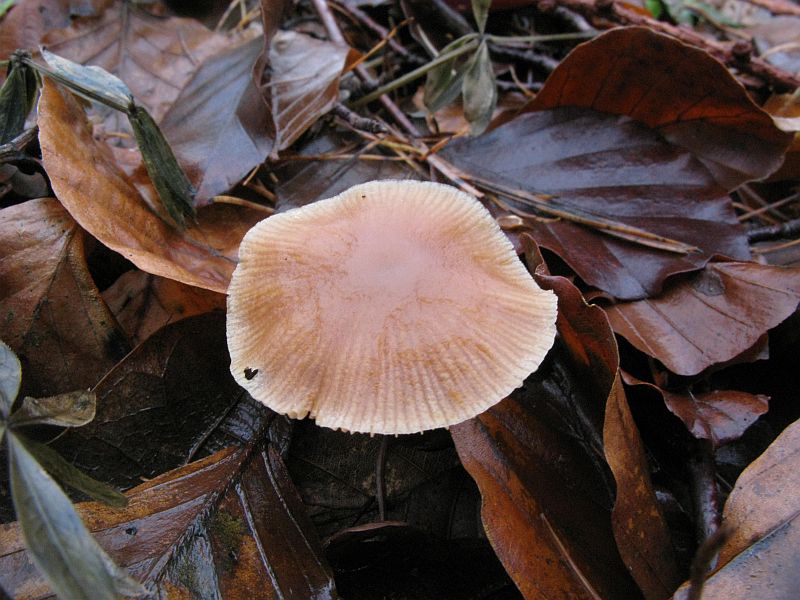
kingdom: Fungi
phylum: Basidiomycota
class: Agaricomycetes
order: Agaricales
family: Tubariaceae
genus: Tubaria
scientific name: Tubaria furfuracea
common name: kliddet fnughat
